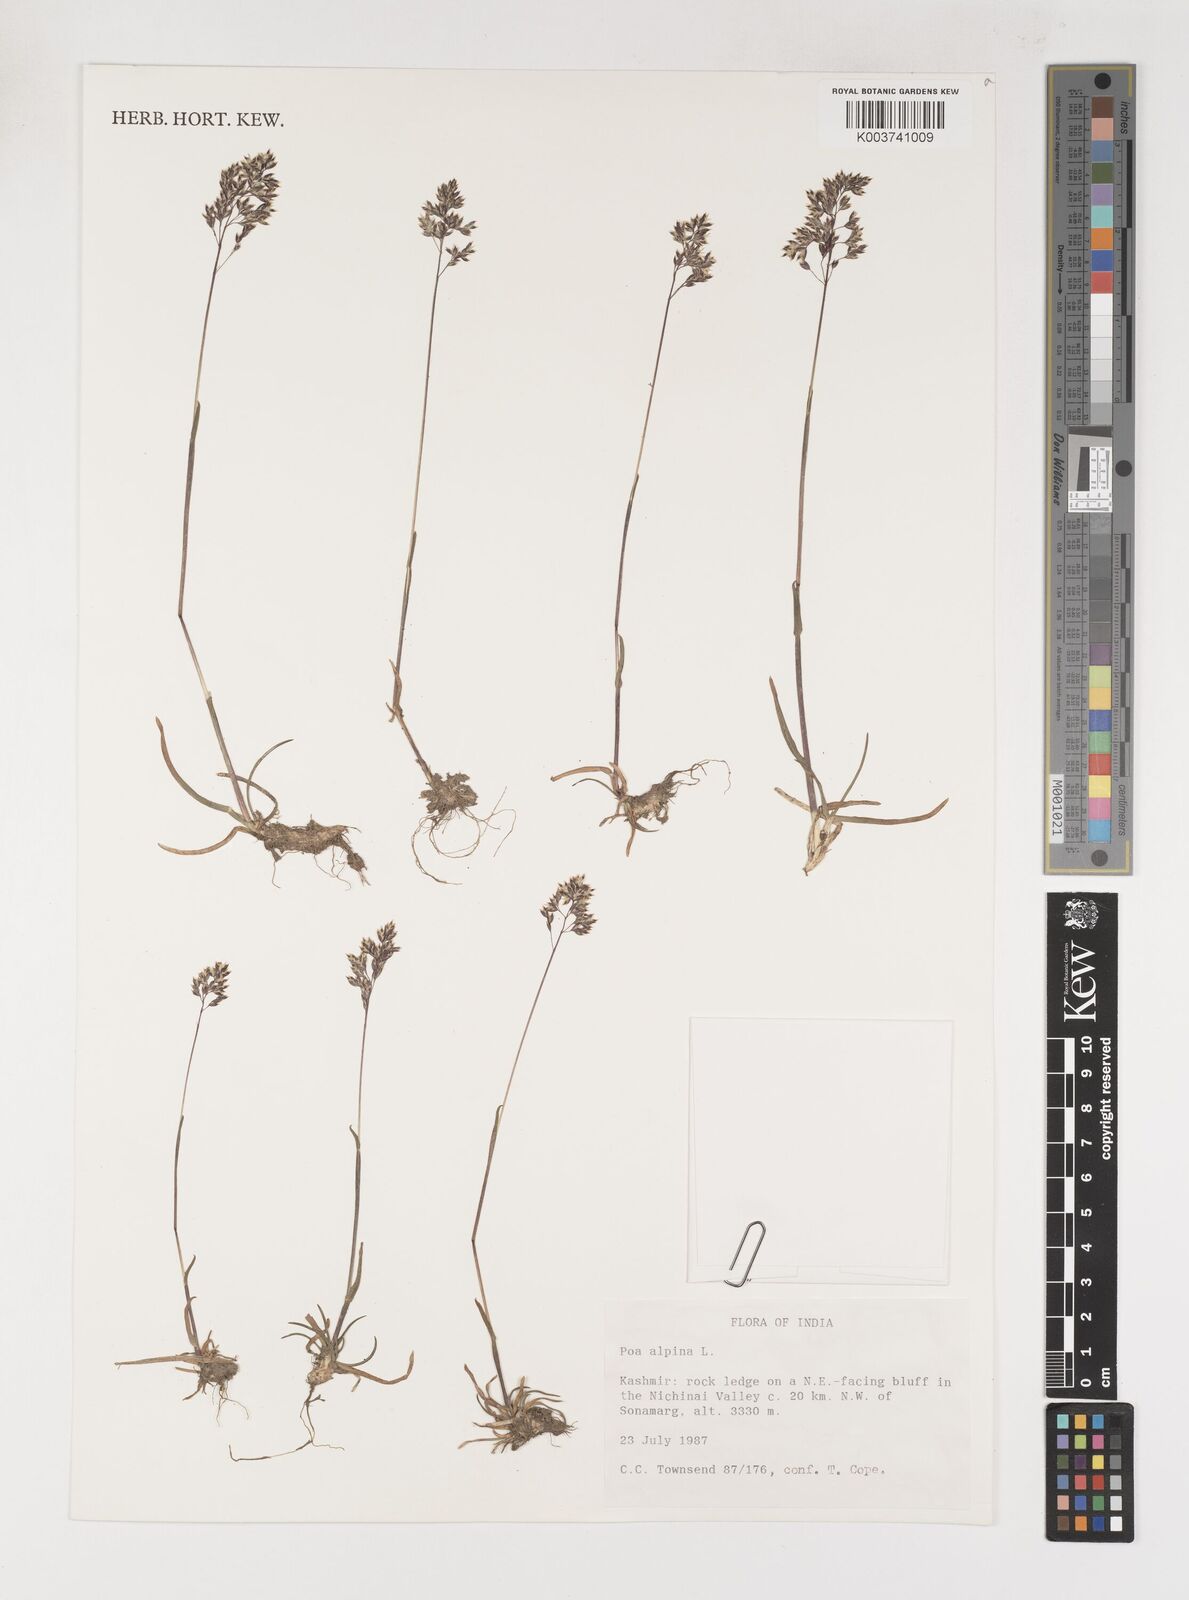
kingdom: Plantae
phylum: Tracheophyta
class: Liliopsida
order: Poales
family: Poaceae
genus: Poa
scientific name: Poa alpina
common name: Alpine bluegrass
